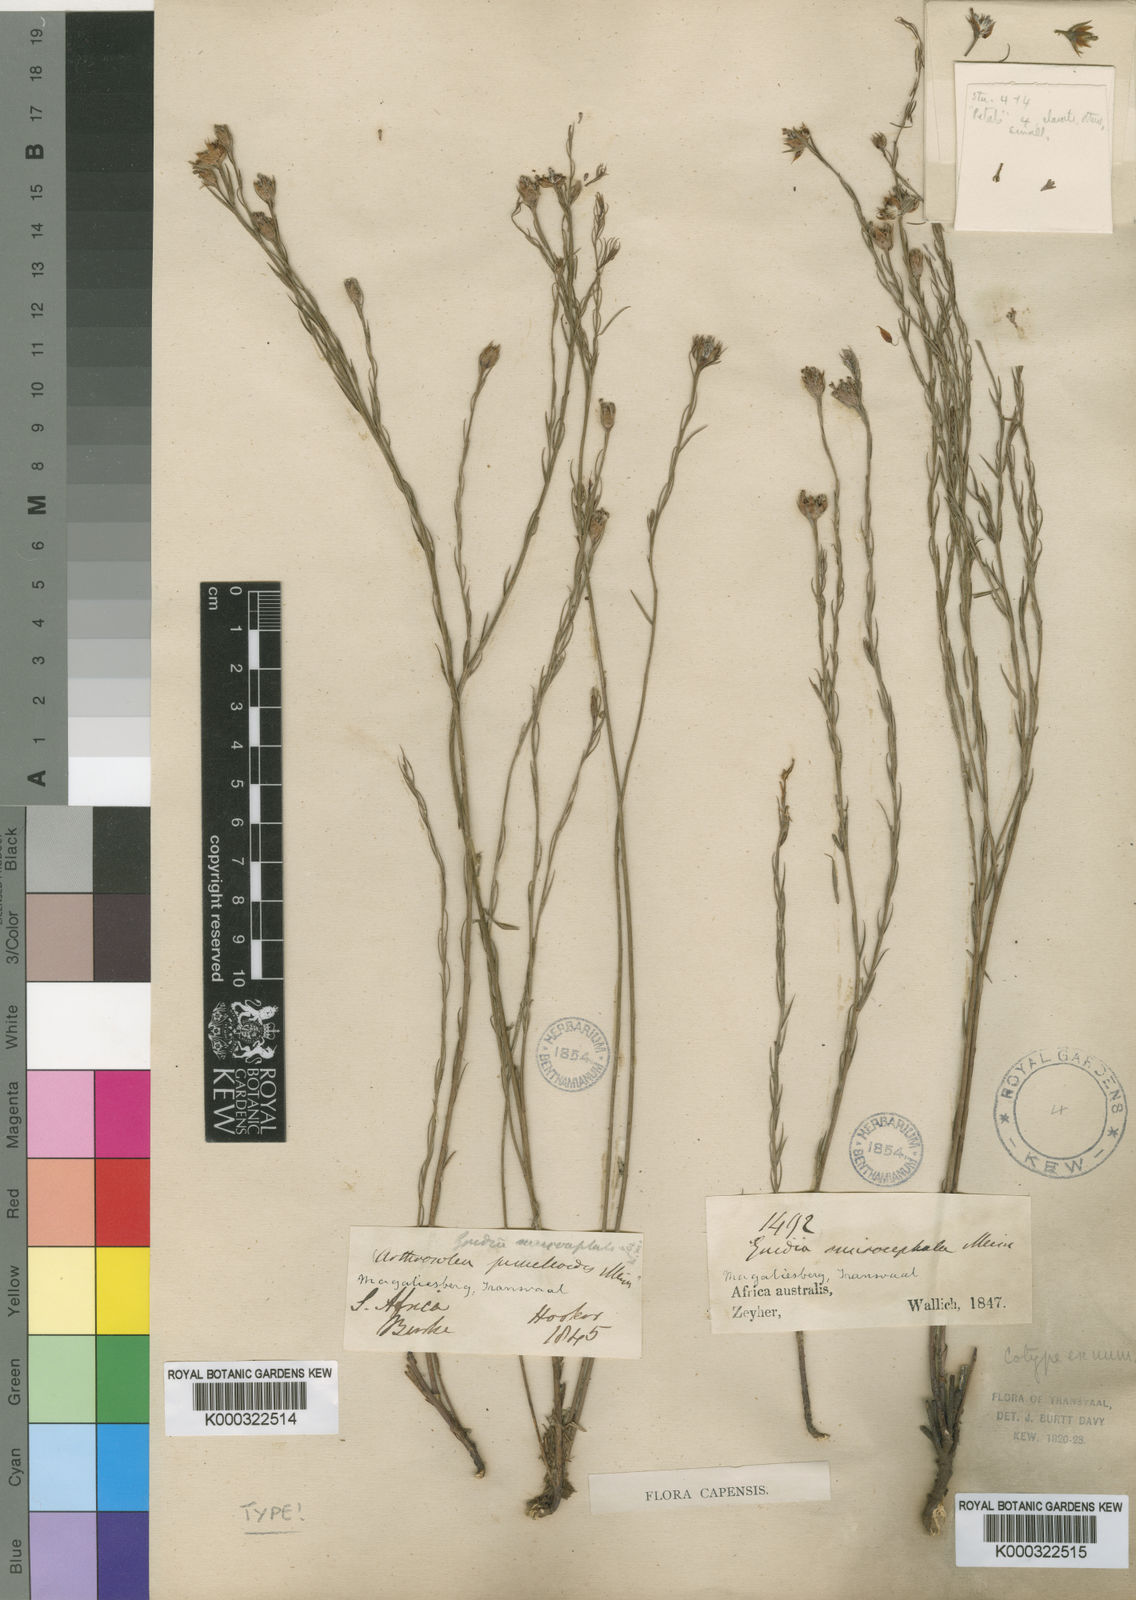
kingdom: Plantae
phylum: Tracheophyta
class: Magnoliopsida
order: Malvales
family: Thymelaeaceae
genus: Gnidia
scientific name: Gnidia microcephala
